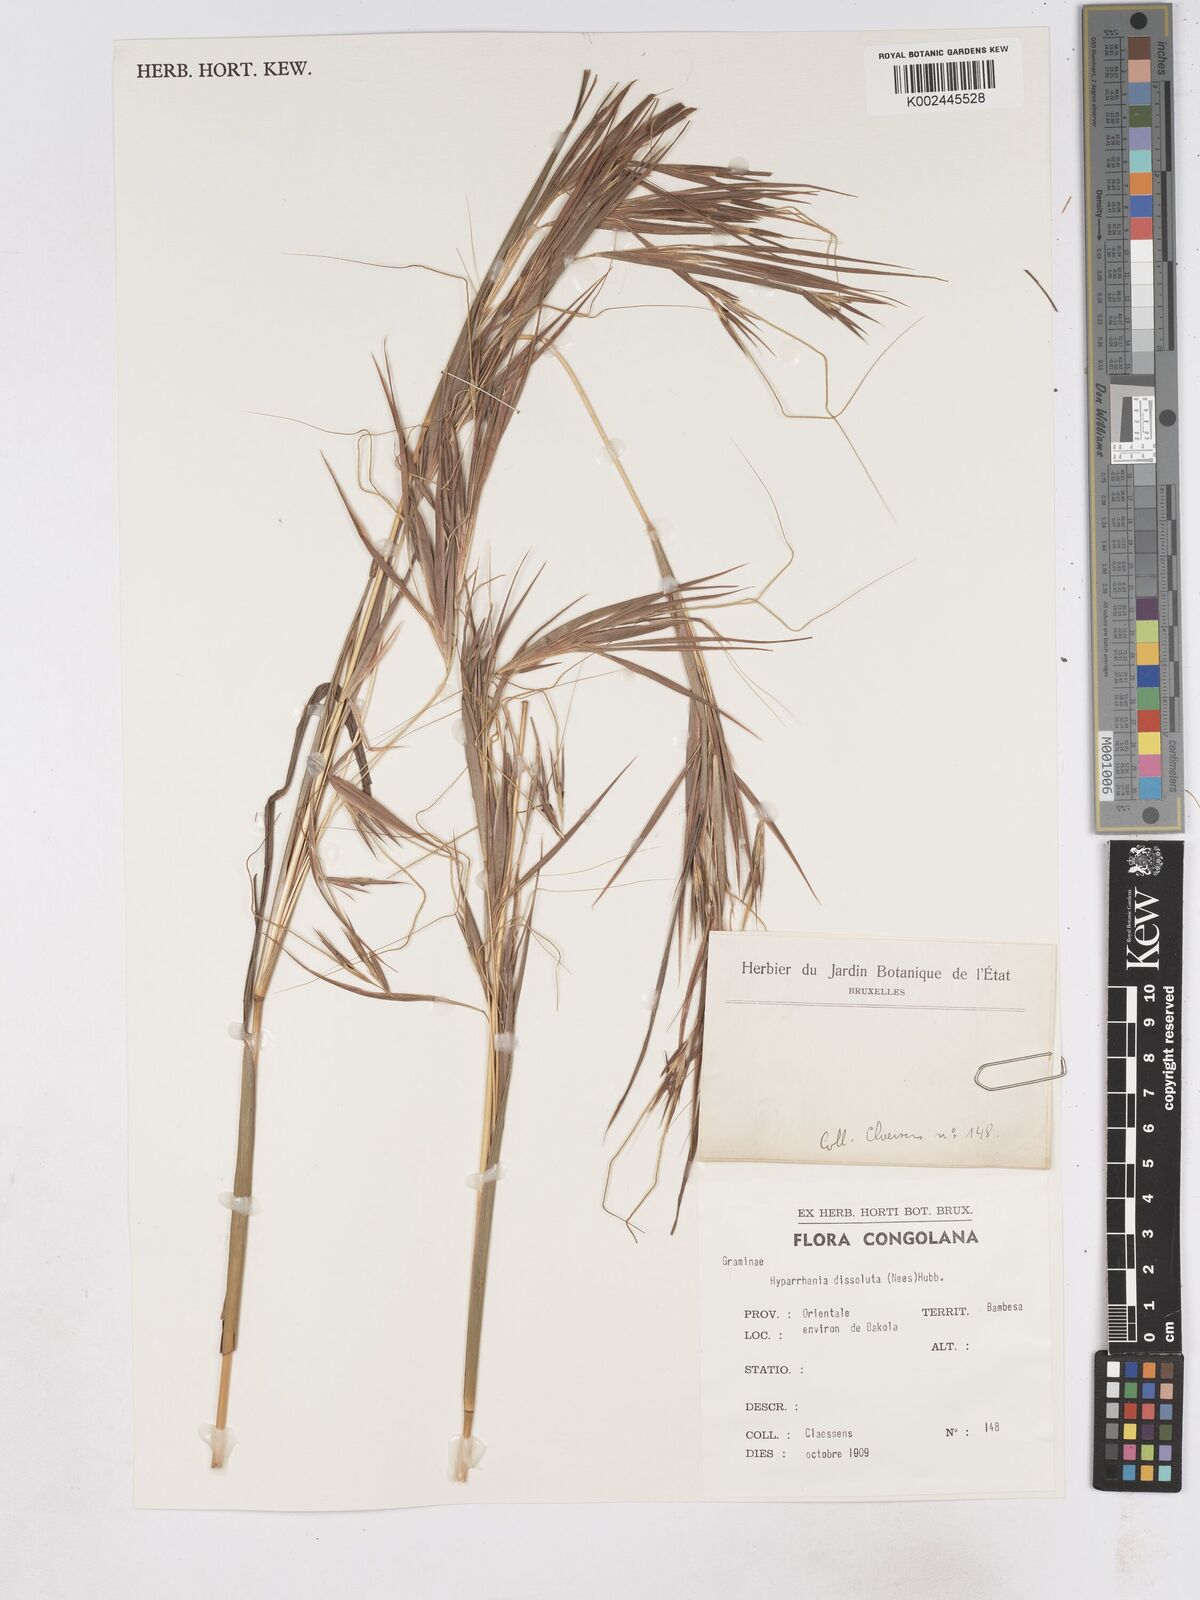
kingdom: Plantae
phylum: Tracheophyta
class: Liliopsida
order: Poales
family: Poaceae
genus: Hyperthelia
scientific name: Hyperthelia dissoluta
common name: Yellow thatching grass
